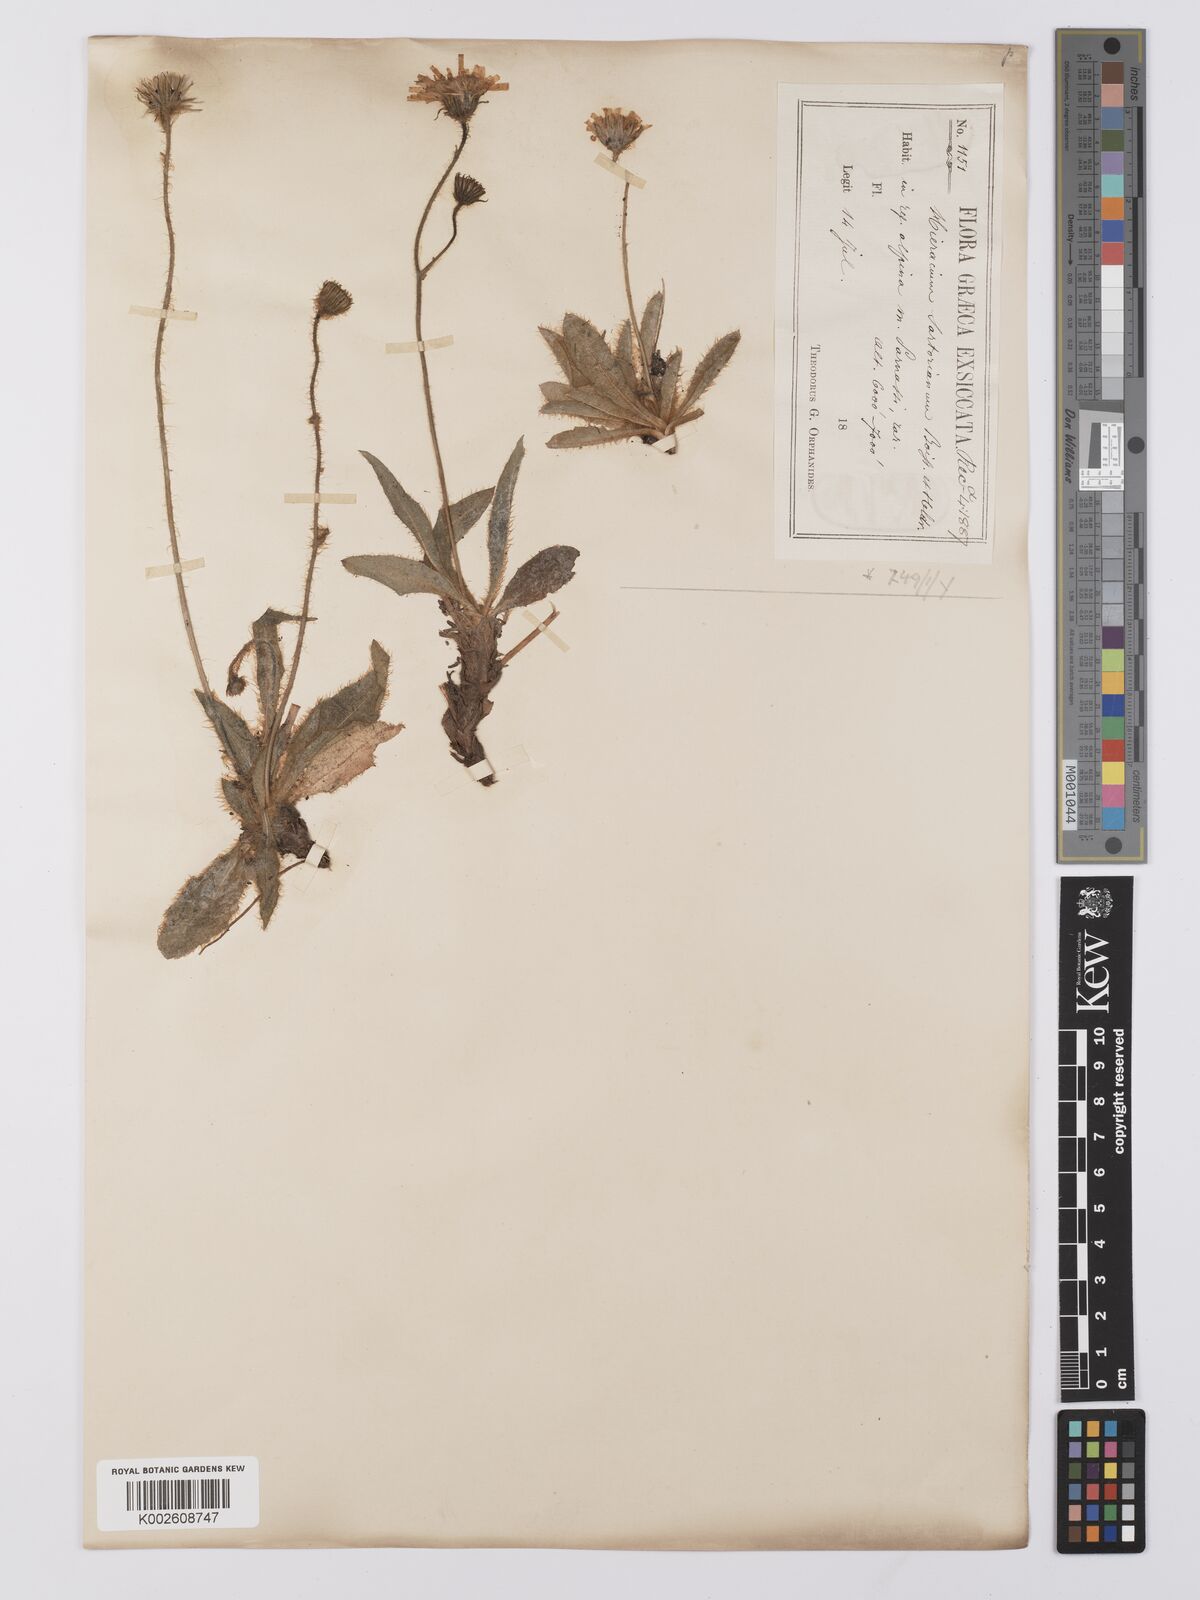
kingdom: Plantae
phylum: Tracheophyta
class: Magnoliopsida
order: Asterales
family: Asteraceae
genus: Hieracium
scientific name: Hieracium sartorianum
